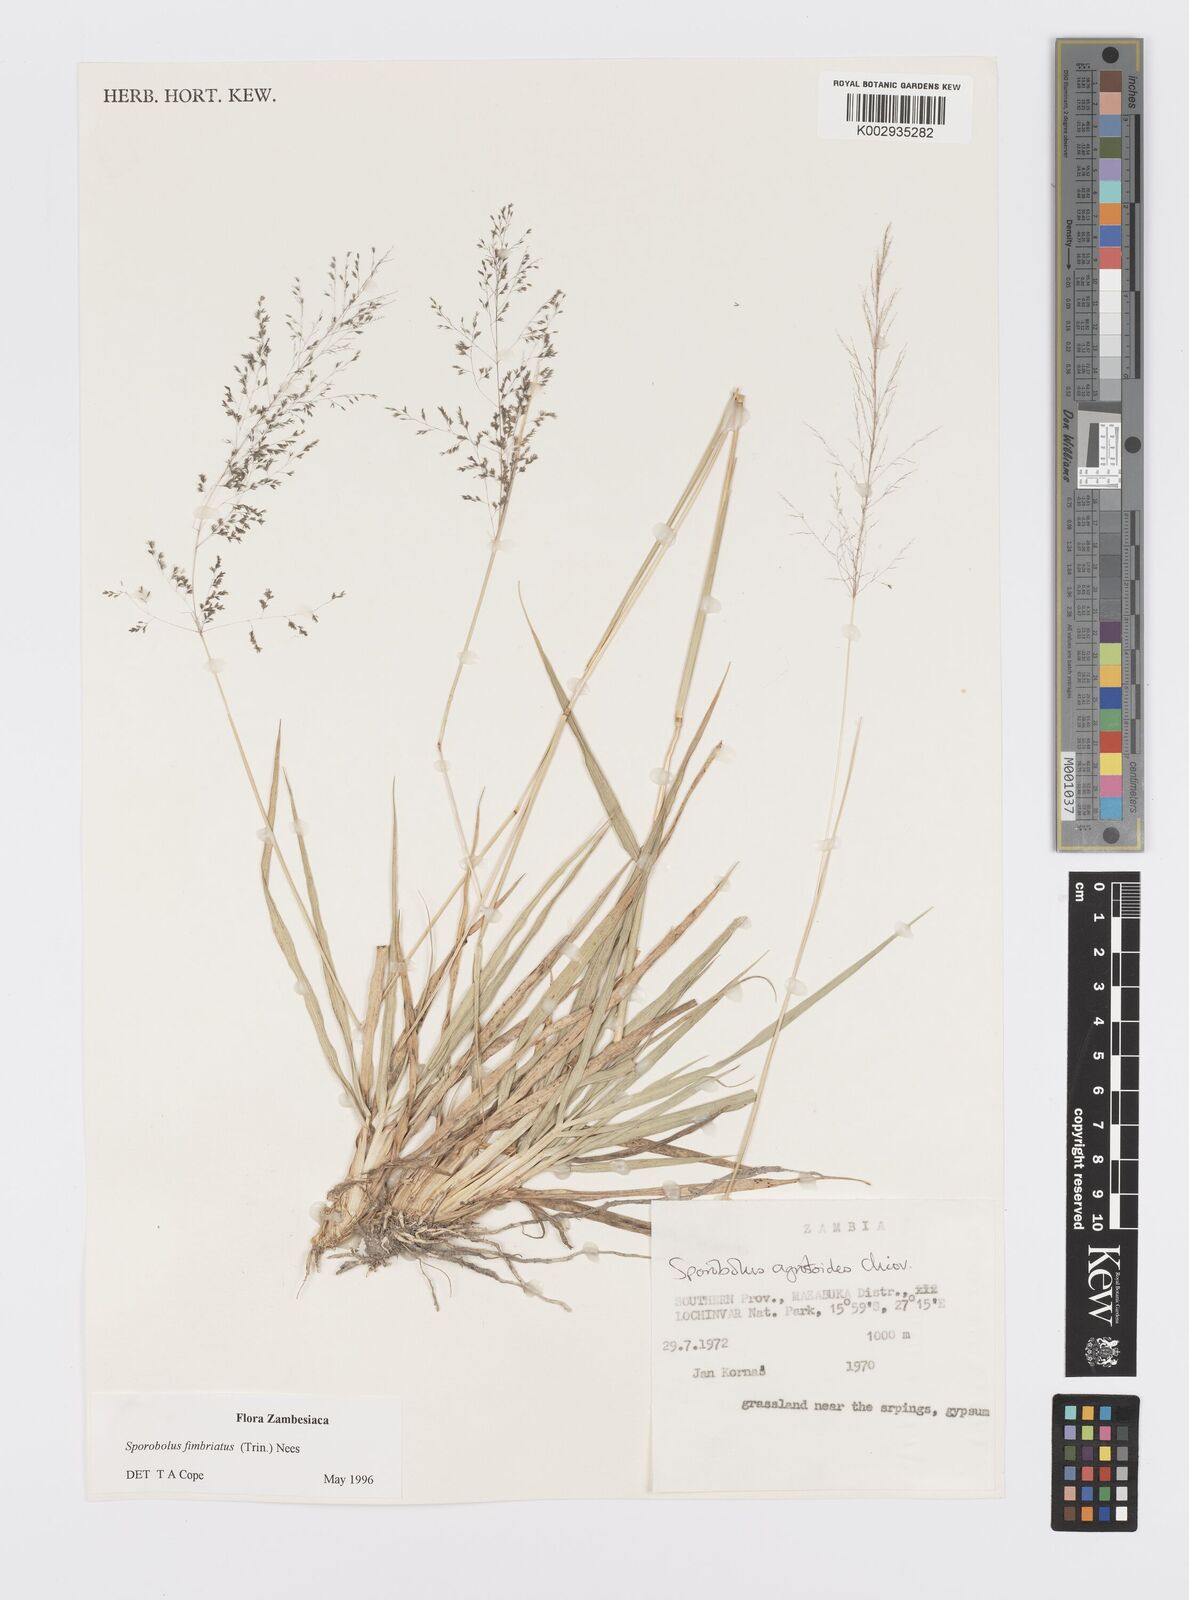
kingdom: Plantae
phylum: Tracheophyta
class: Liliopsida
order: Poales
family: Poaceae
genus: Sporobolus
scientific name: Sporobolus fimbriatus
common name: Fringed dropseed
